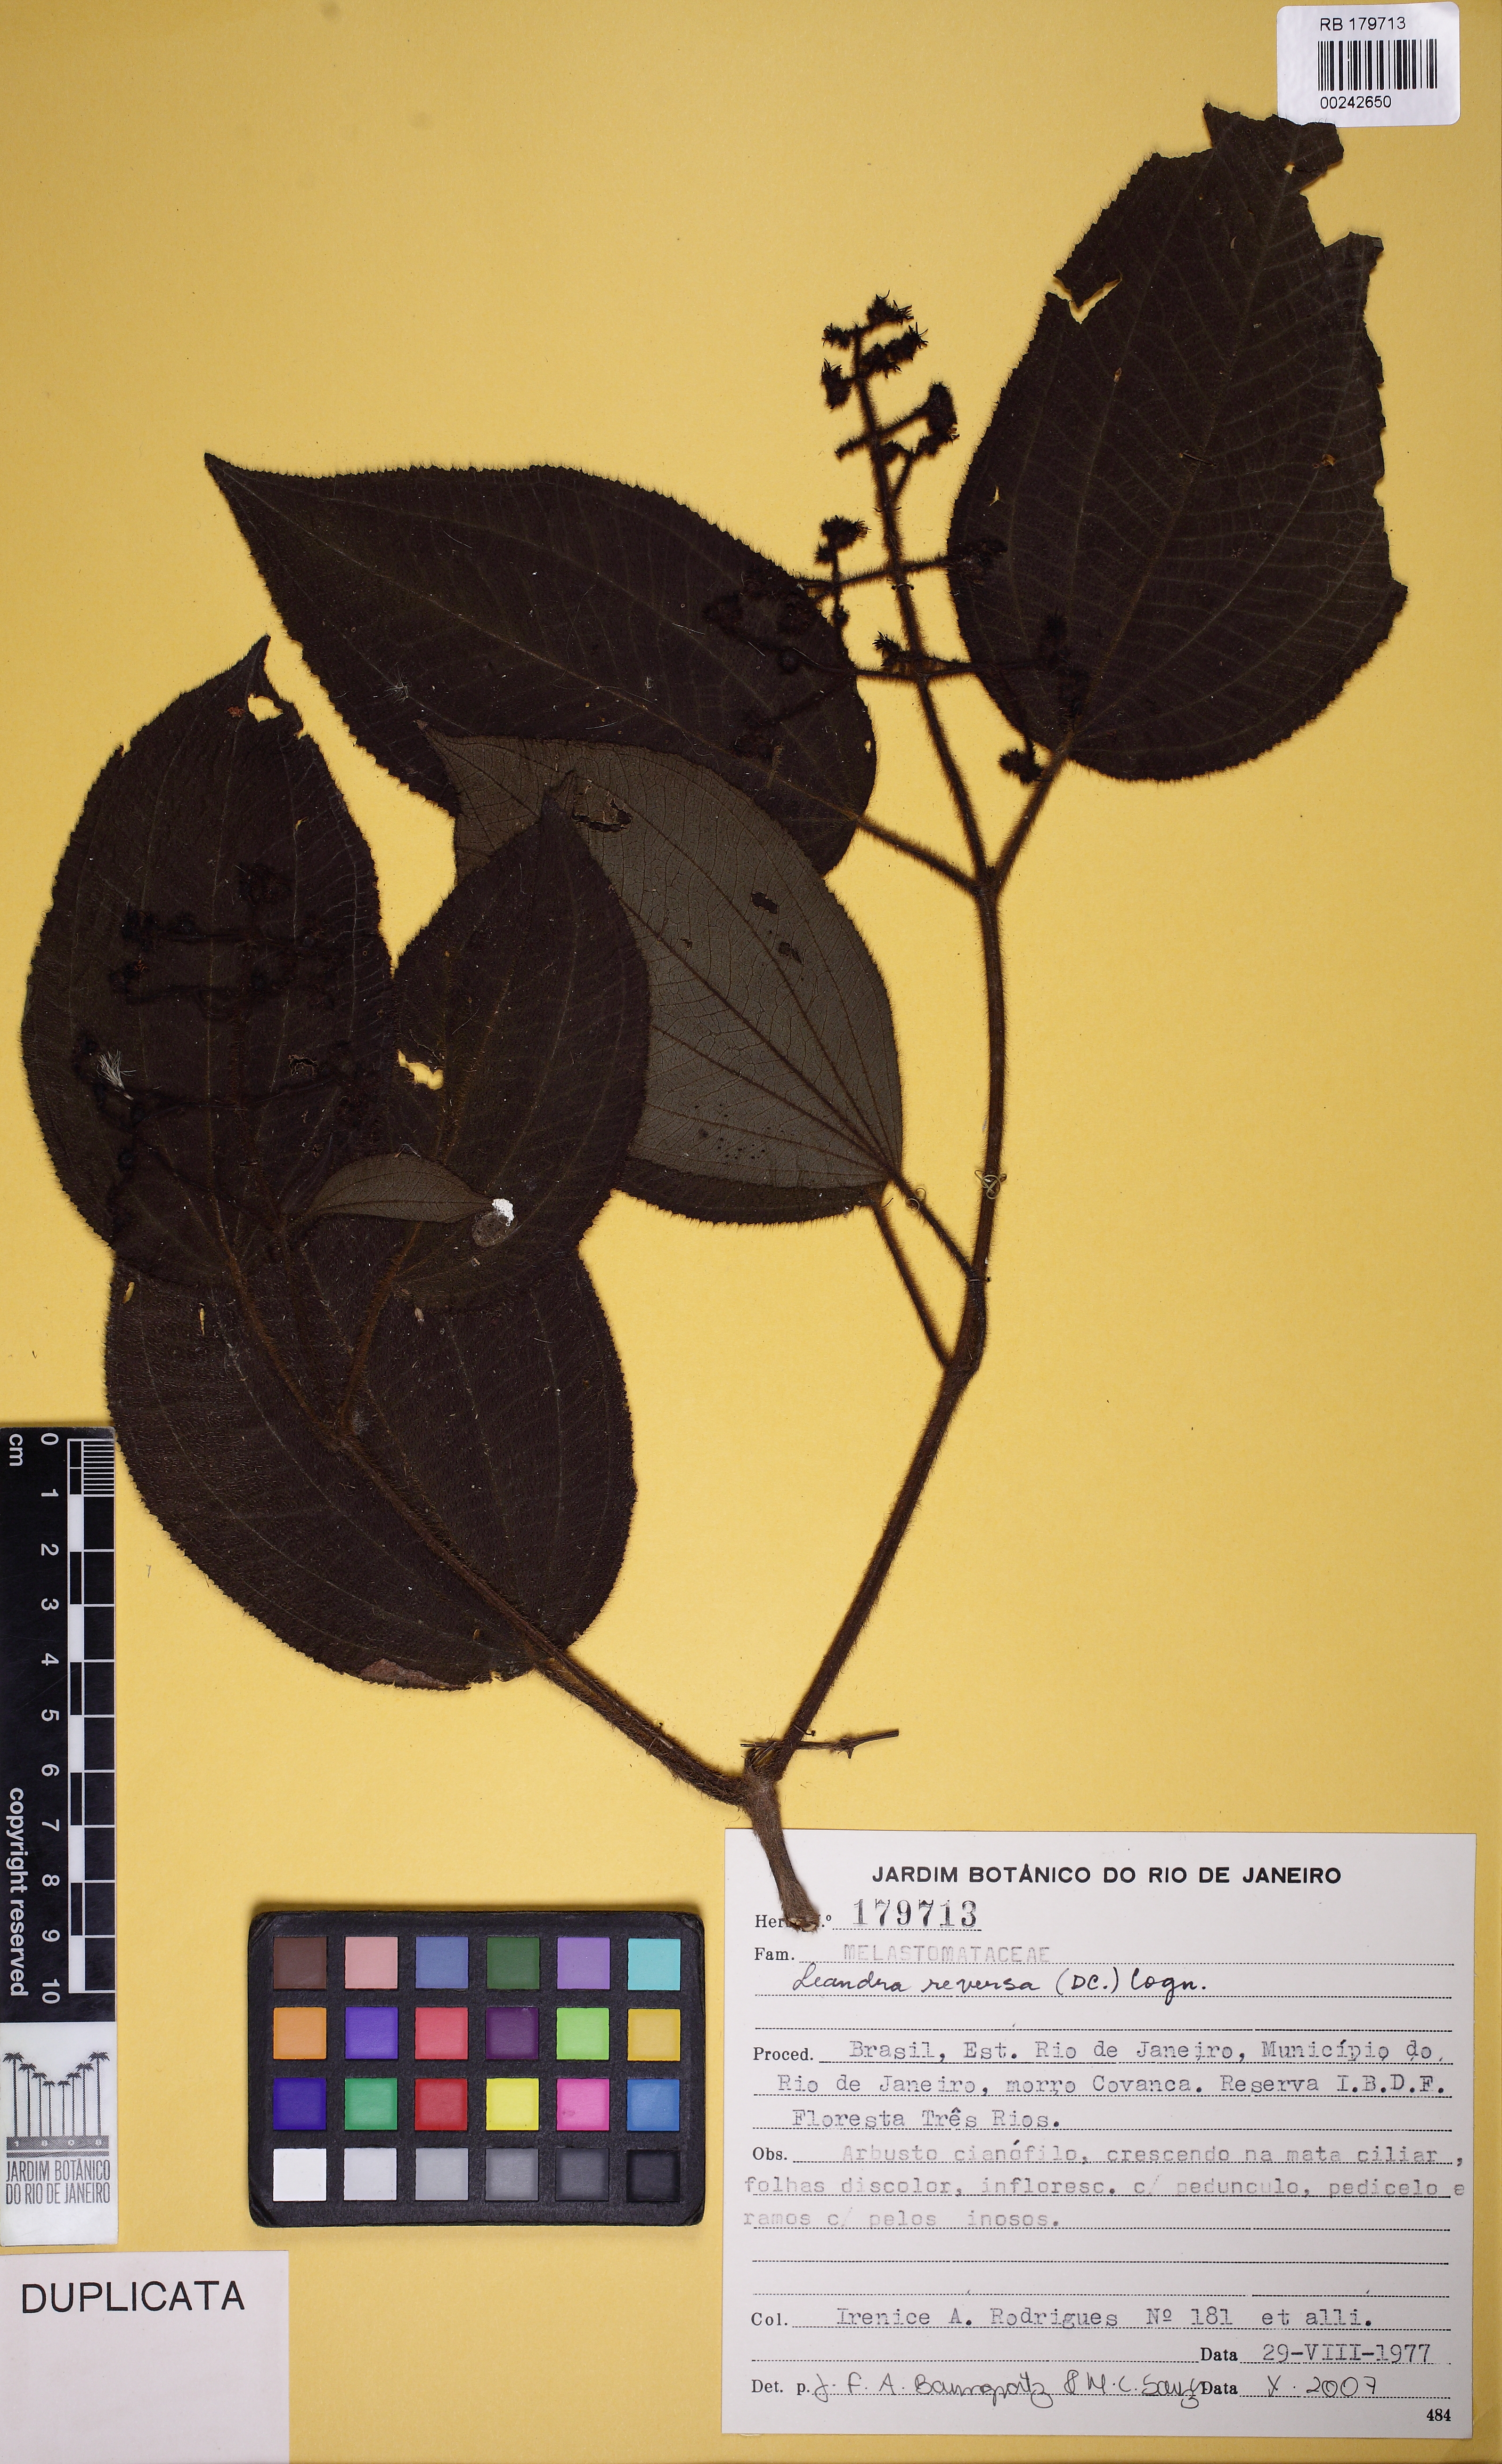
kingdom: Plantae
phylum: Tracheophyta
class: Magnoliopsida
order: Myrtales
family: Melastomataceae
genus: Miconia
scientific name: Miconia reversa
